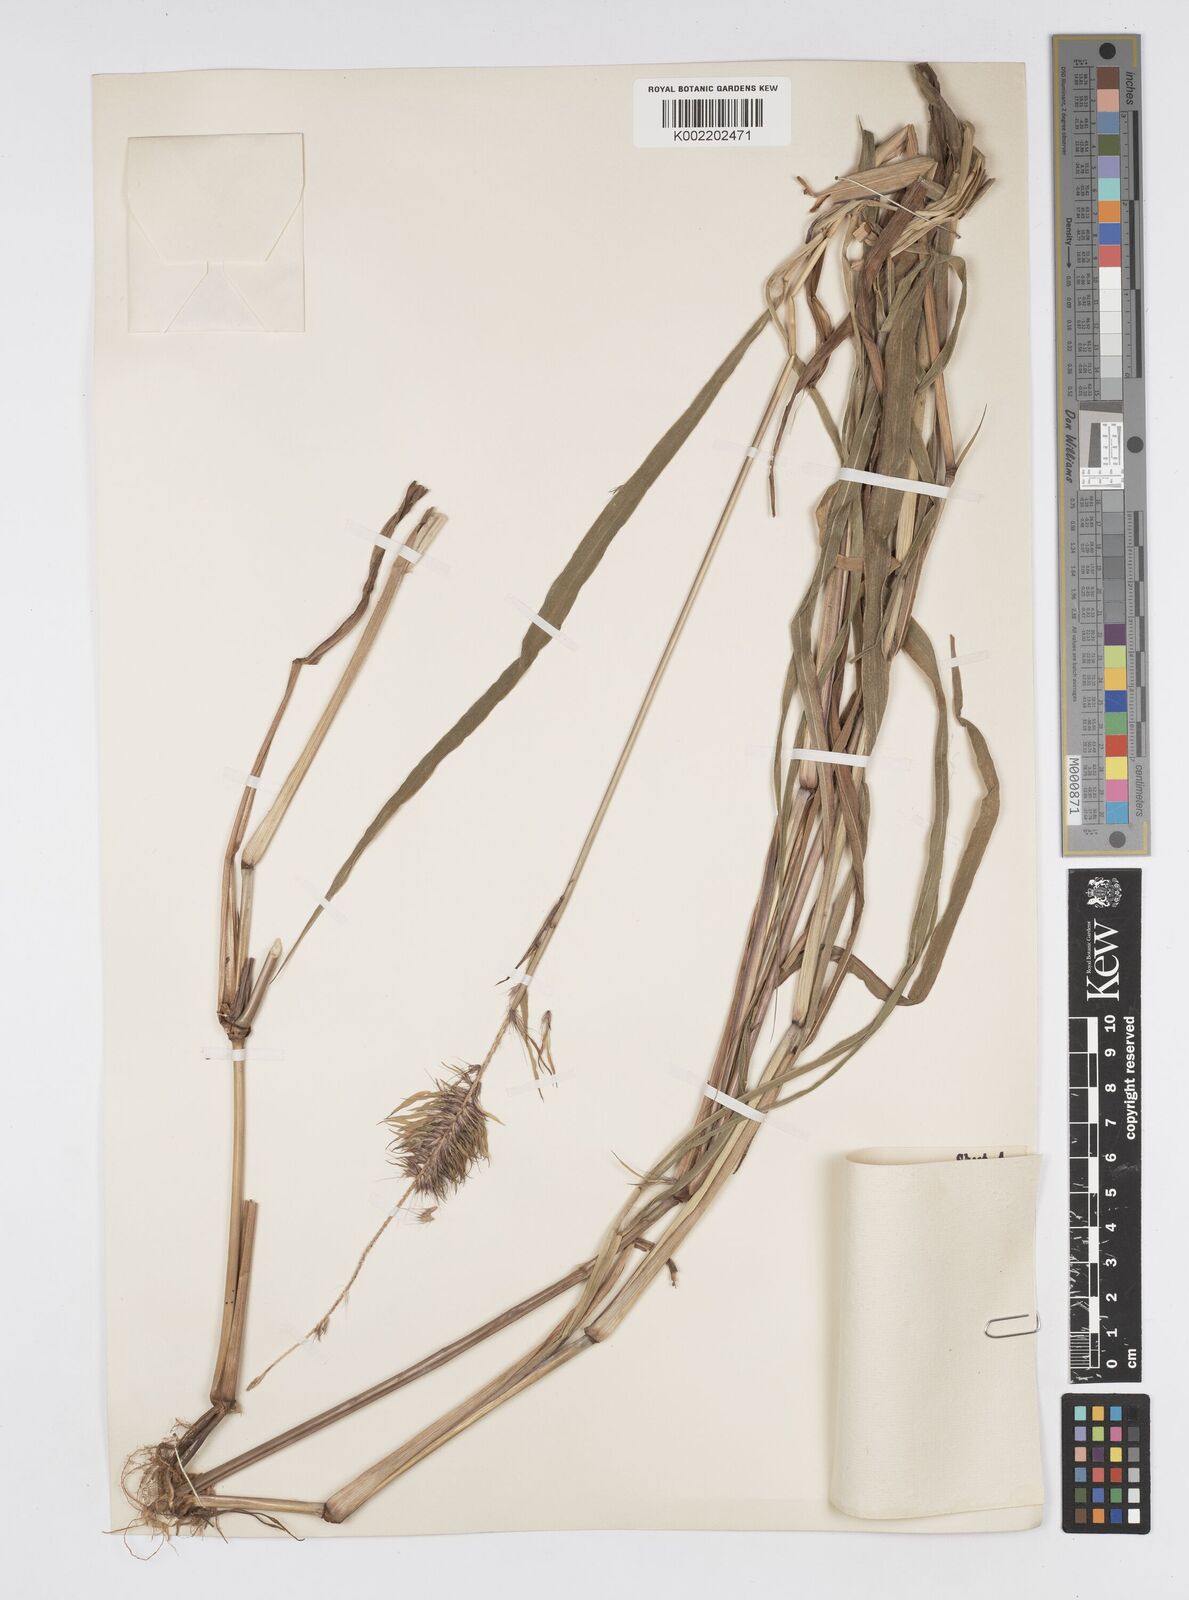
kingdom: Plantae
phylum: Tracheophyta
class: Liliopsida
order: Poales
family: Poaceae
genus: Setaria
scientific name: Setaria parviflora
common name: Knotroot bristle-grass
